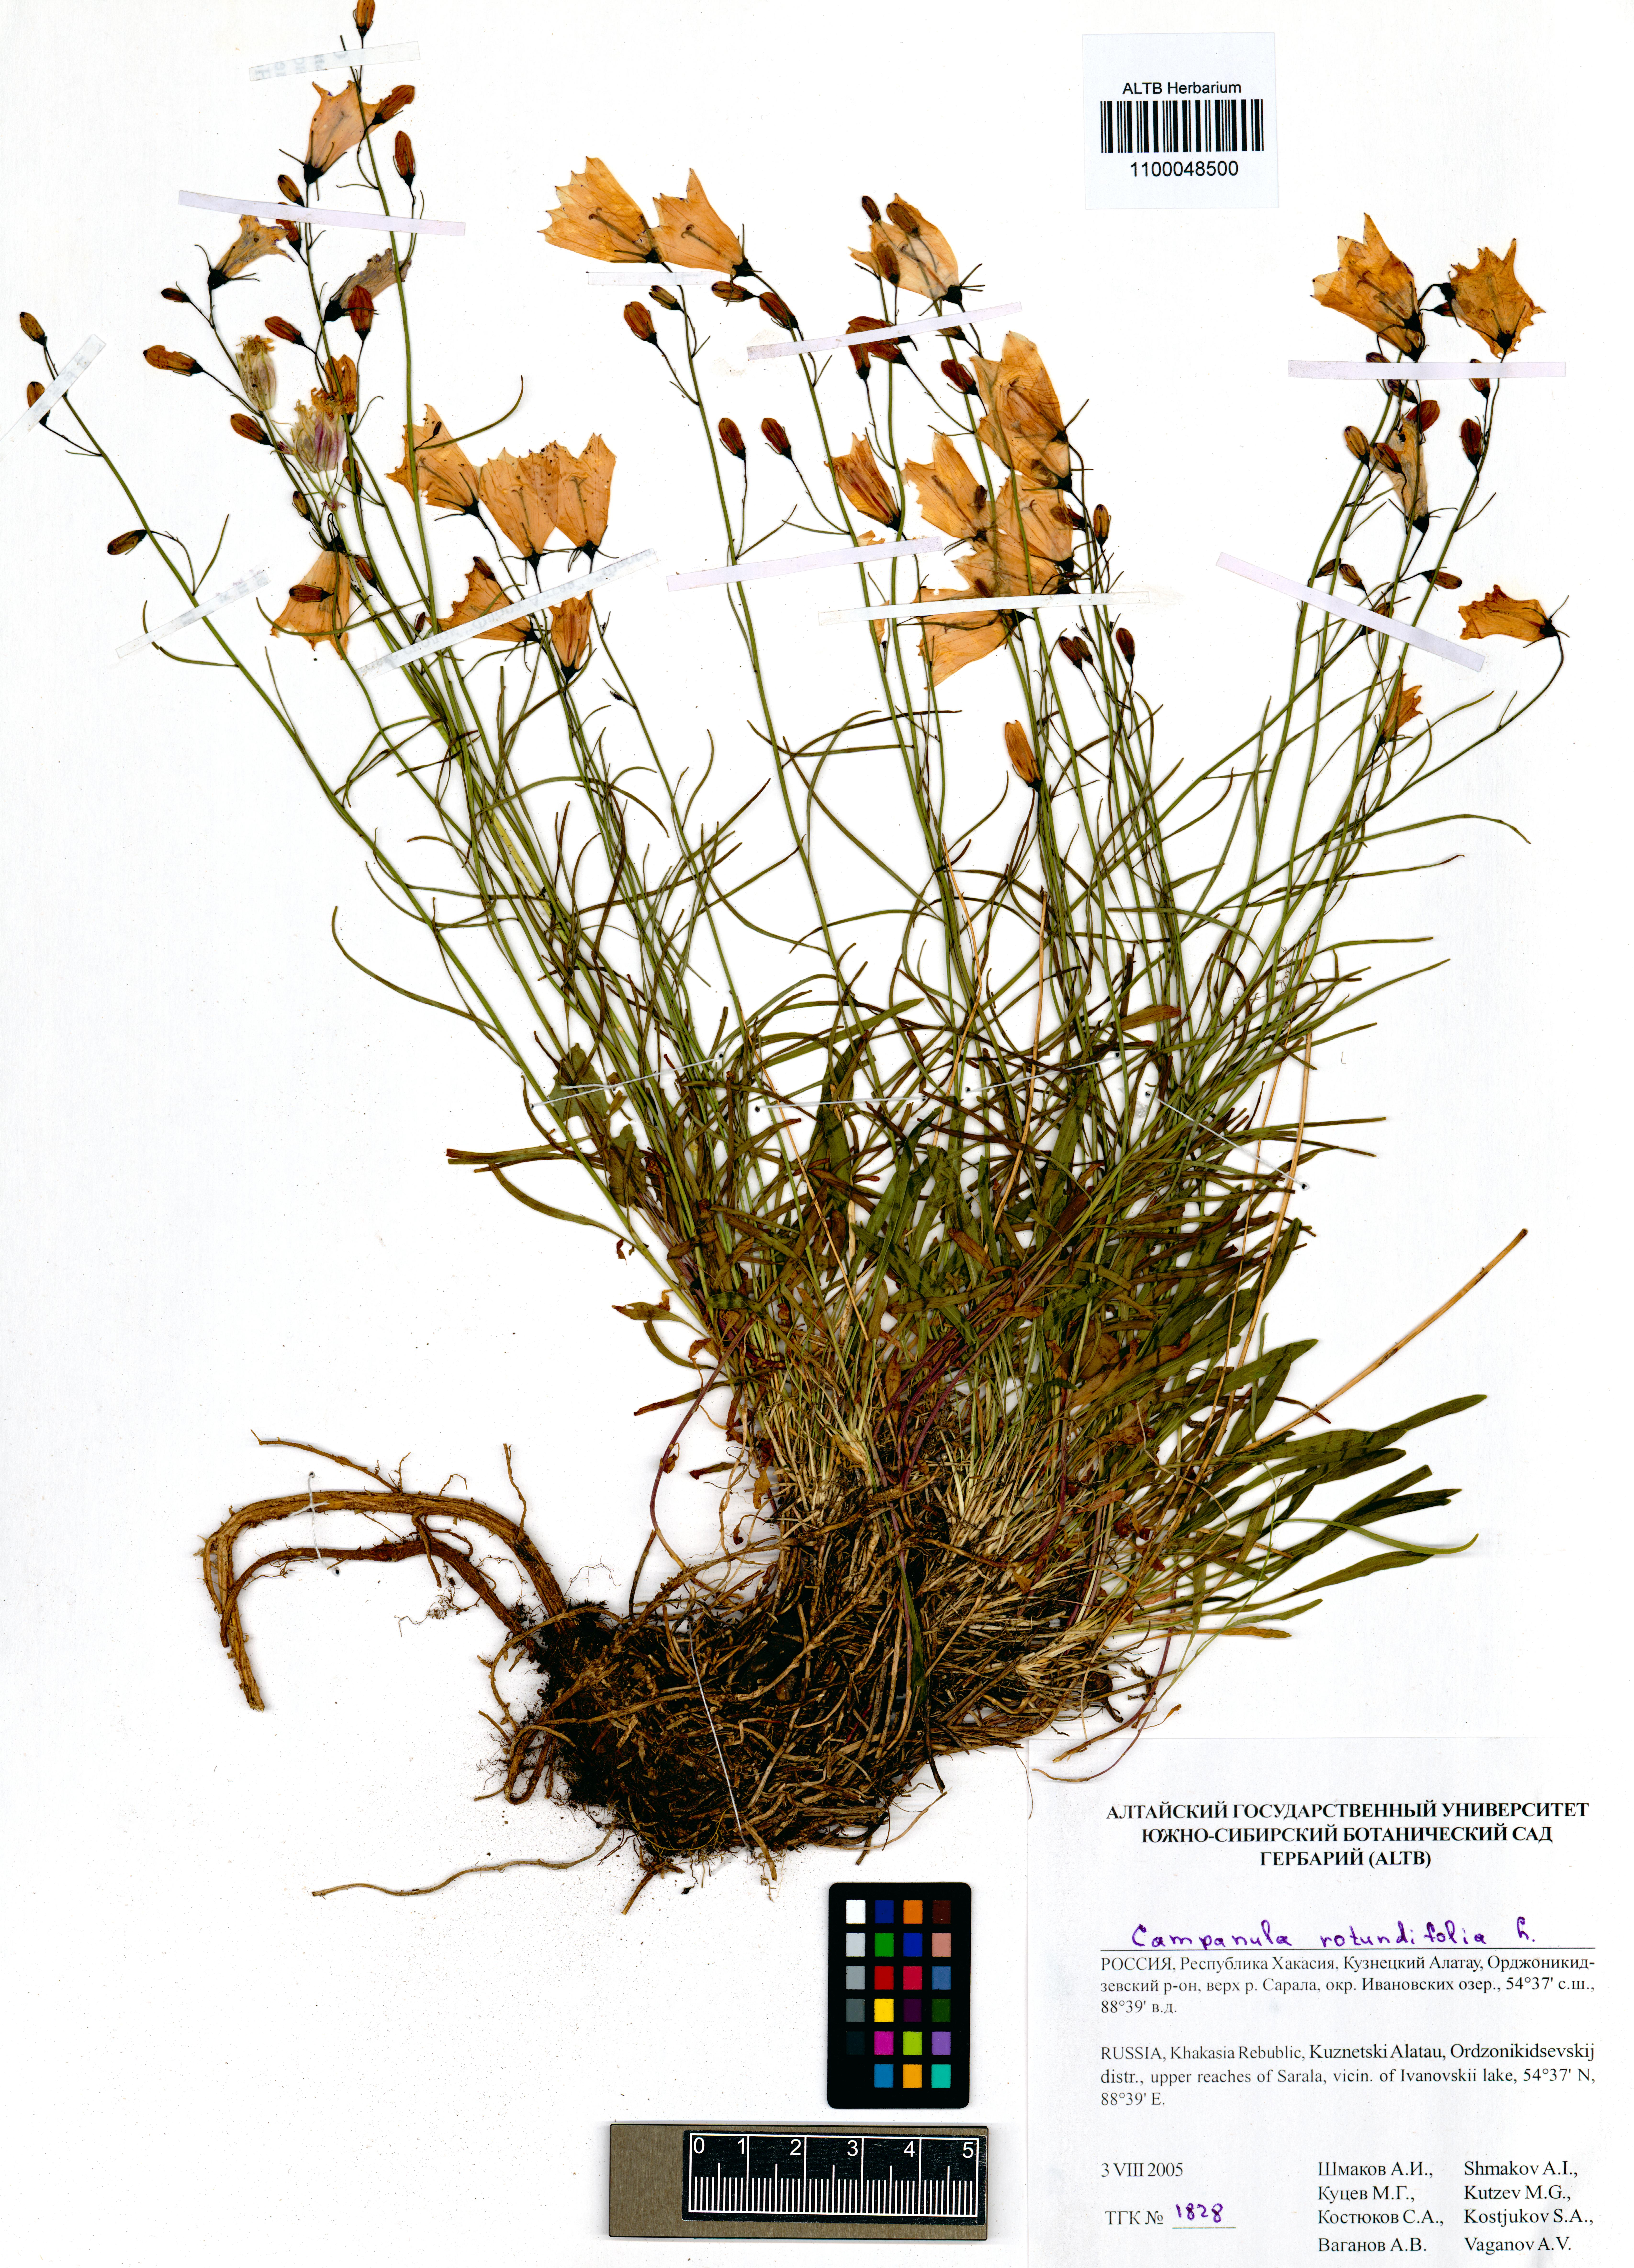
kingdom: Plantae
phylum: Tracheophyta
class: Magnoliopsida
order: Asterales
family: Campanulaceae
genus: Campanula
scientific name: Campanula rotundifolia
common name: Harebell
